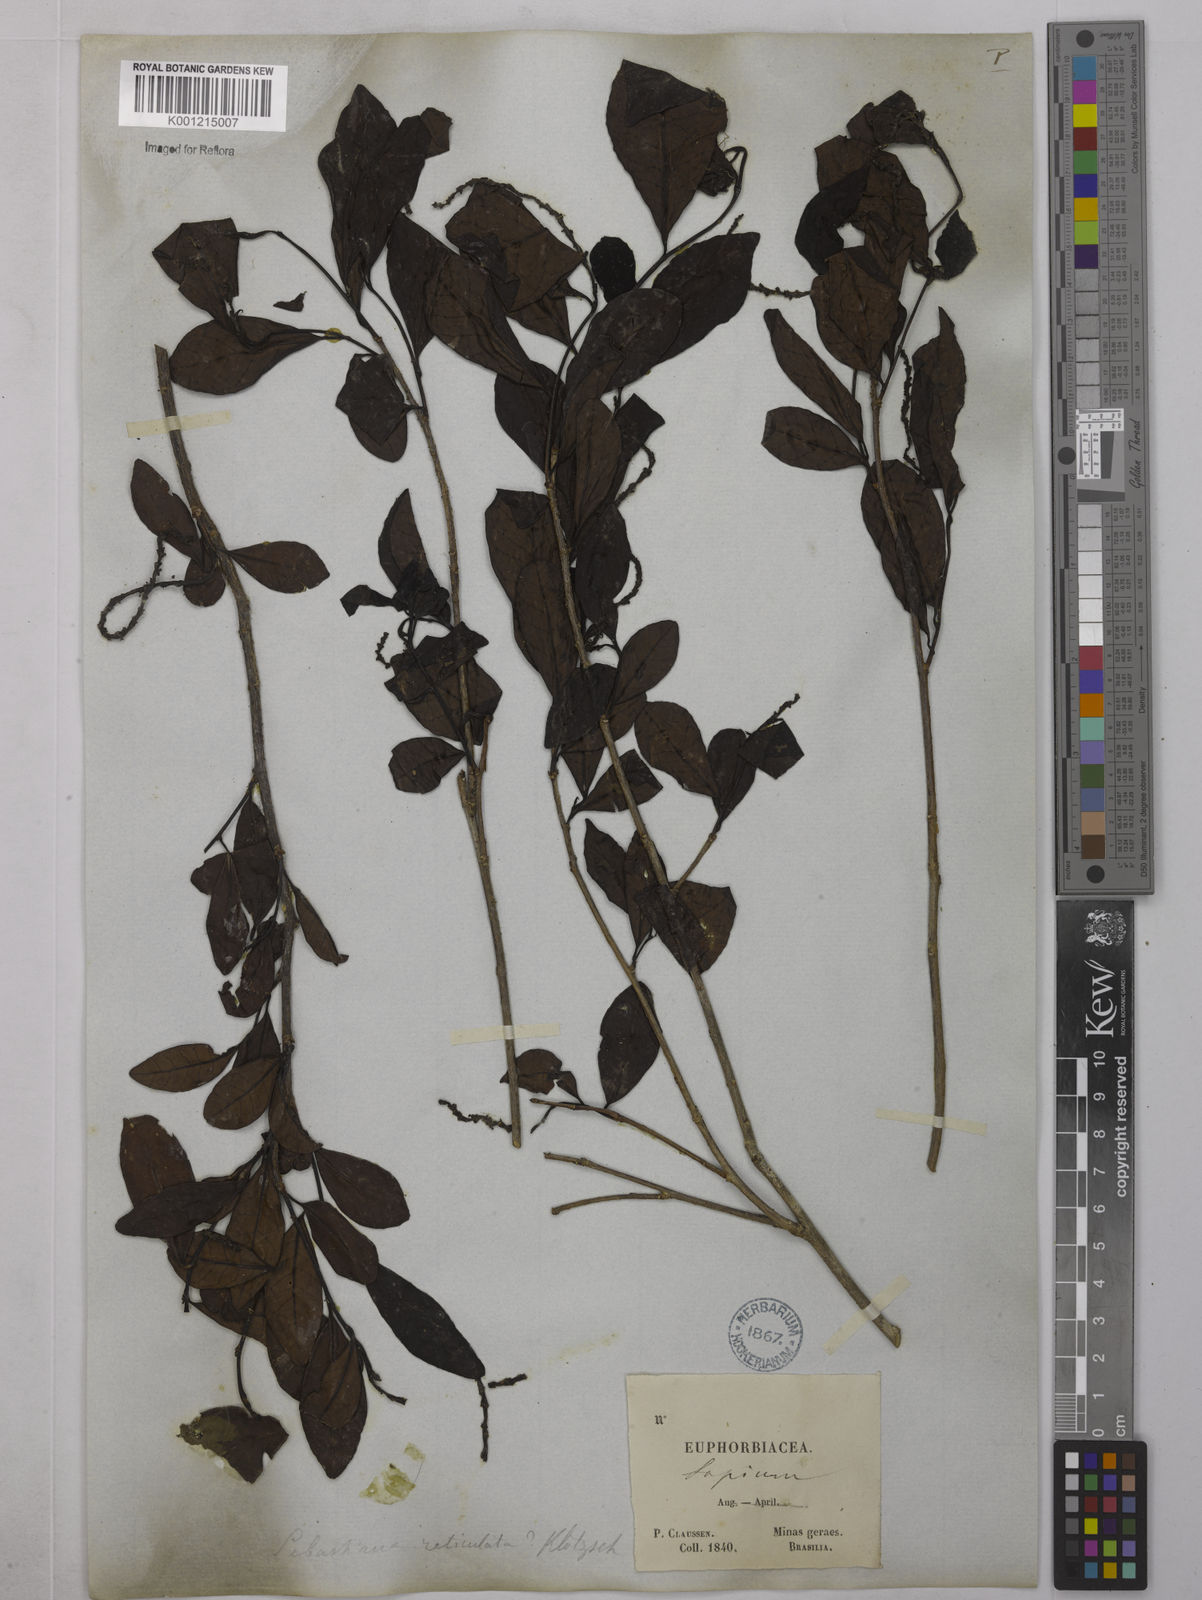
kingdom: Plantae
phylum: Tracheophyta
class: Magnoliopsida
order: Malpighiales
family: Euphorbiaceae
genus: Sebastiania
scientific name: Sebastiania brasiliensis
